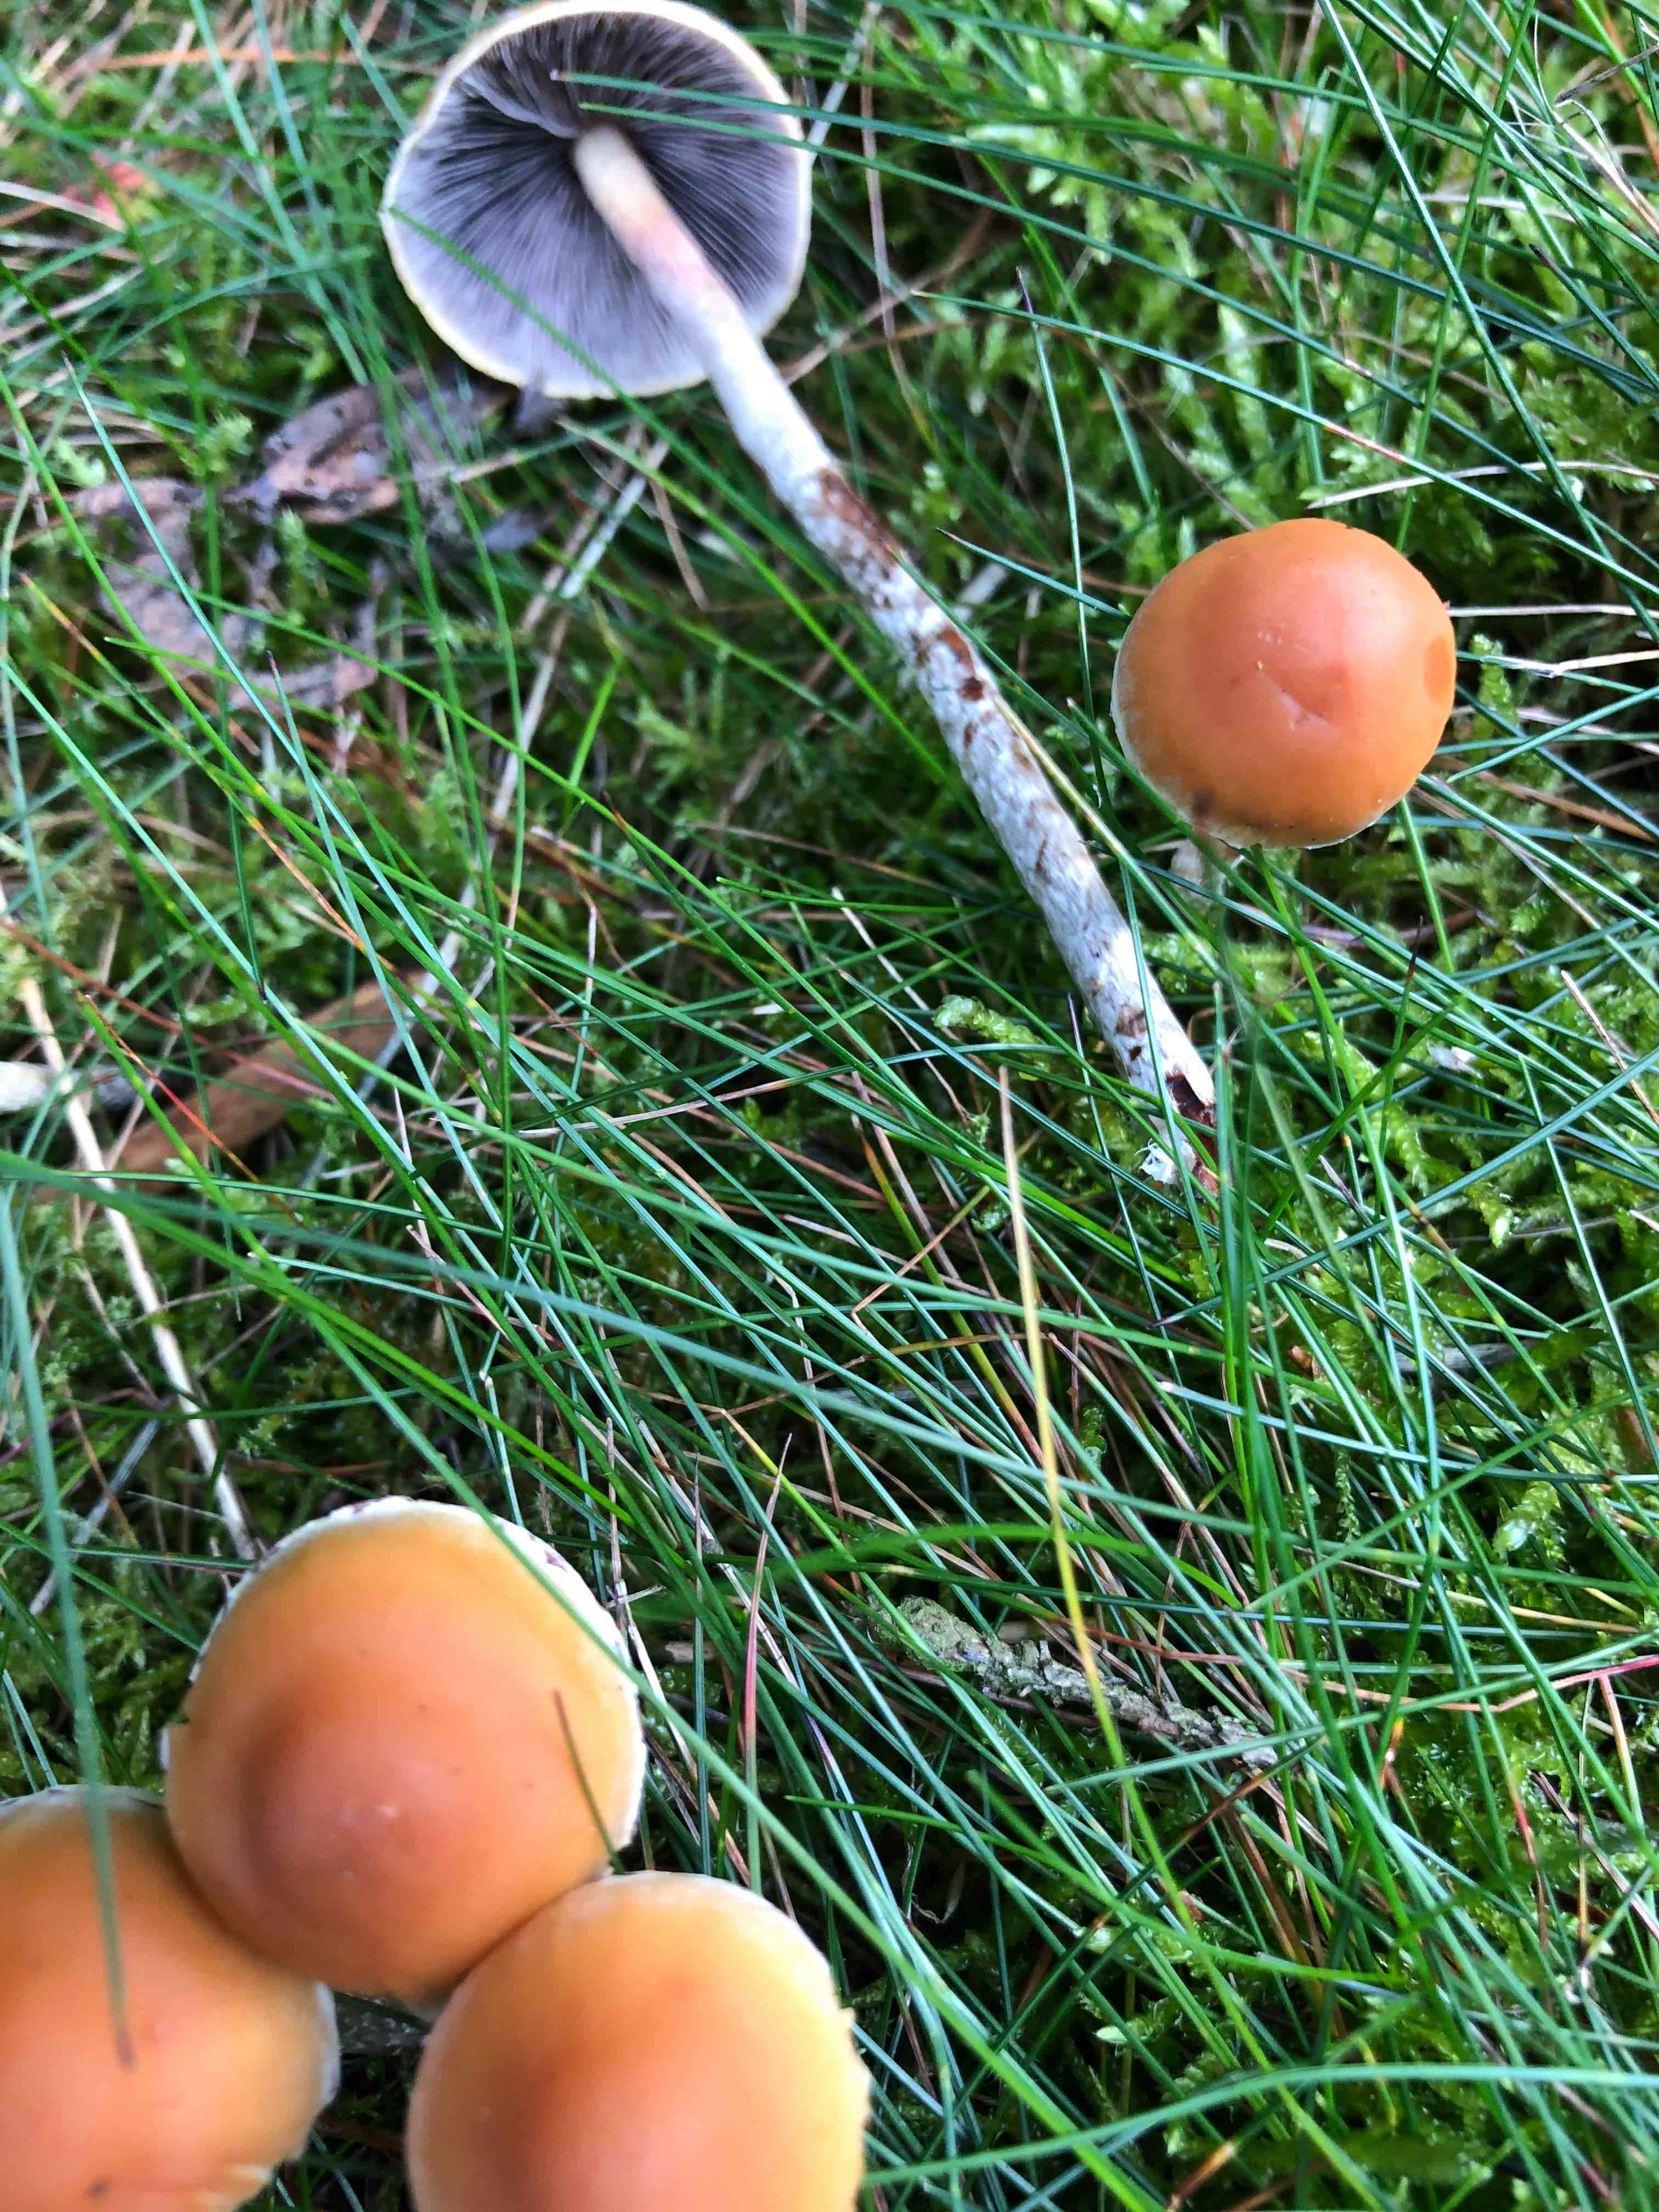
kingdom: Fungi
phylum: Basidiomycota
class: Agaricomycetes
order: Agaricales
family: Strophariaceae
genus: Hypholoma
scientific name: Hypholoma marginatum
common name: enlig svovlhat
